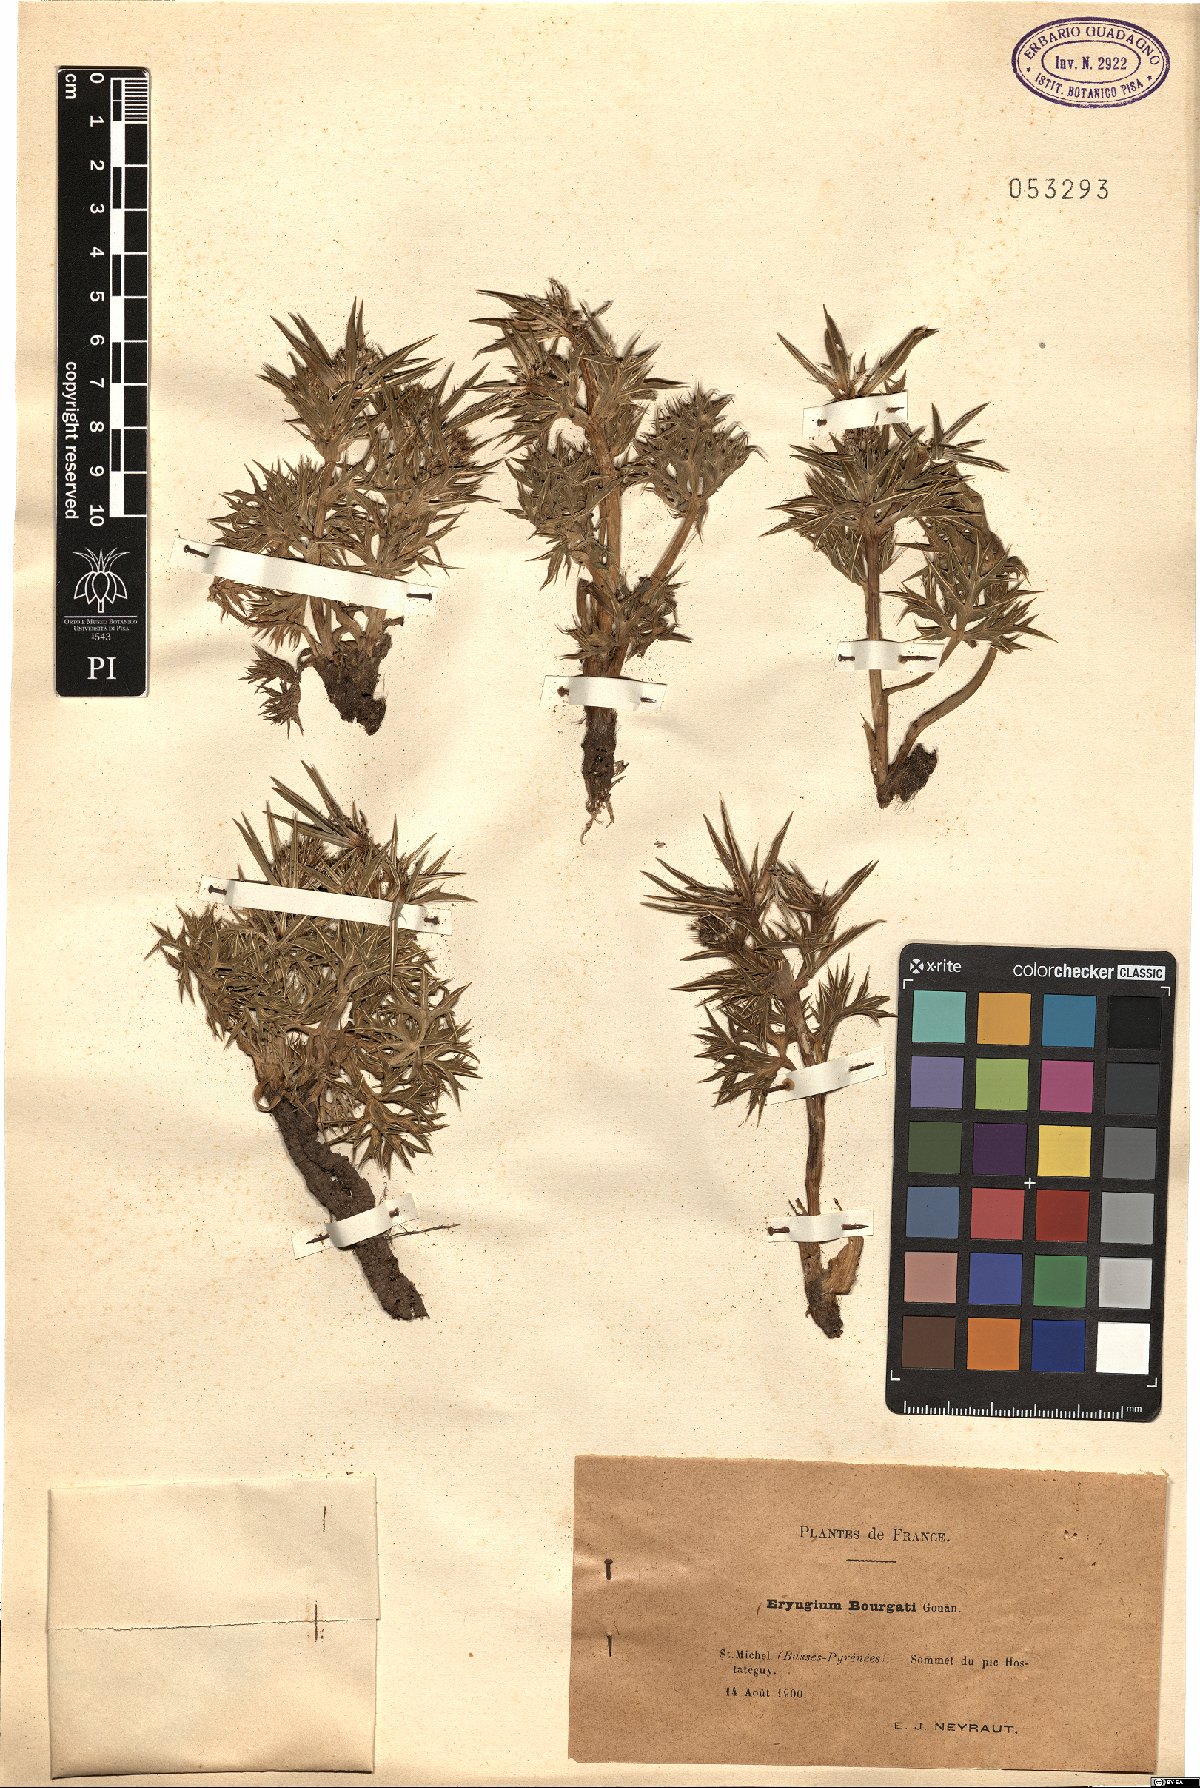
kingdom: Plantae
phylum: Tracheophyta
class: Magnoliopsida
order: Apiales
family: Apiaceae
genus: Eryngium
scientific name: Eryngium bourgatii
